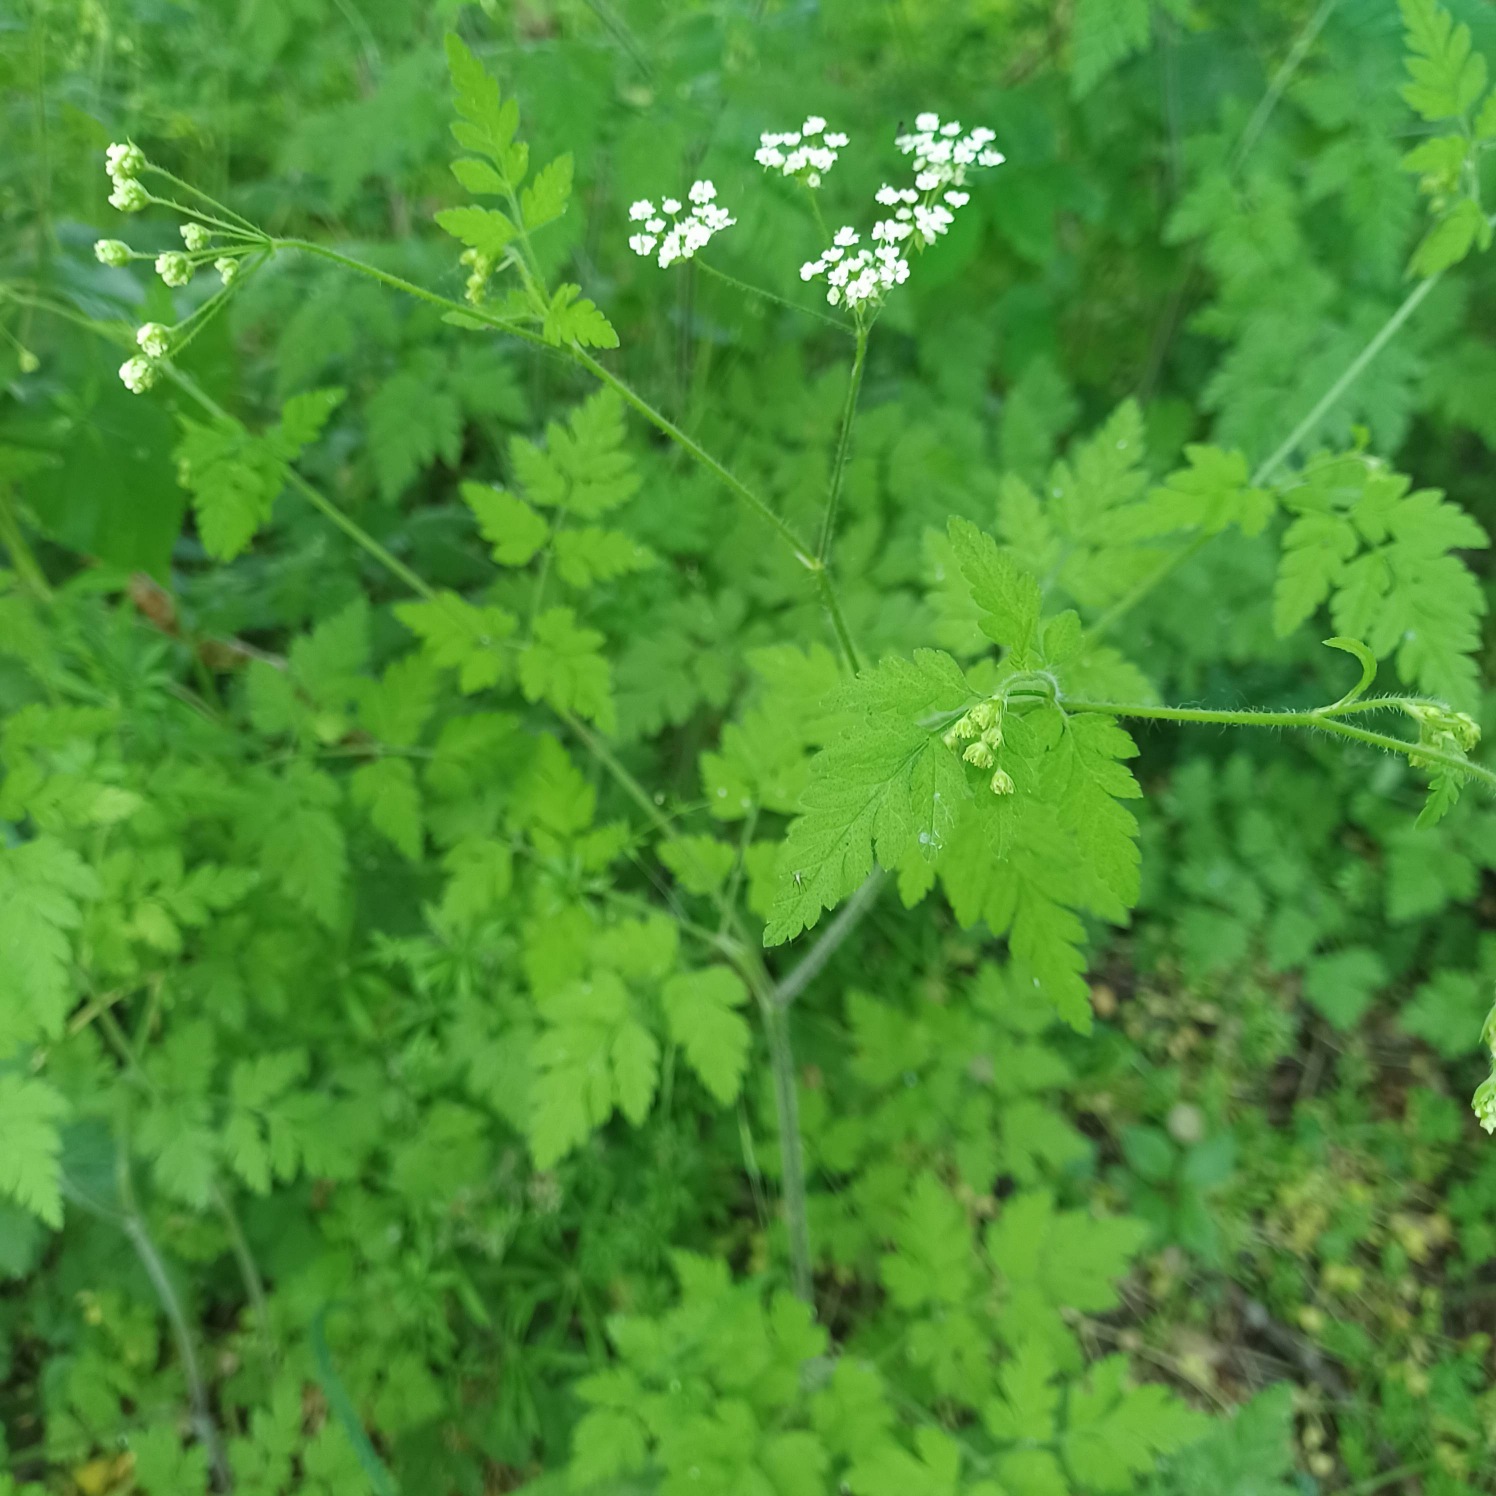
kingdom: Plantae
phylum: Tracheophyta
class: Magnoliopsida
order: Apiales
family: Apiaceae
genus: Chaerophyllum
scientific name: Chaerophyllum temulum
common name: Almindelig hulsvøb
